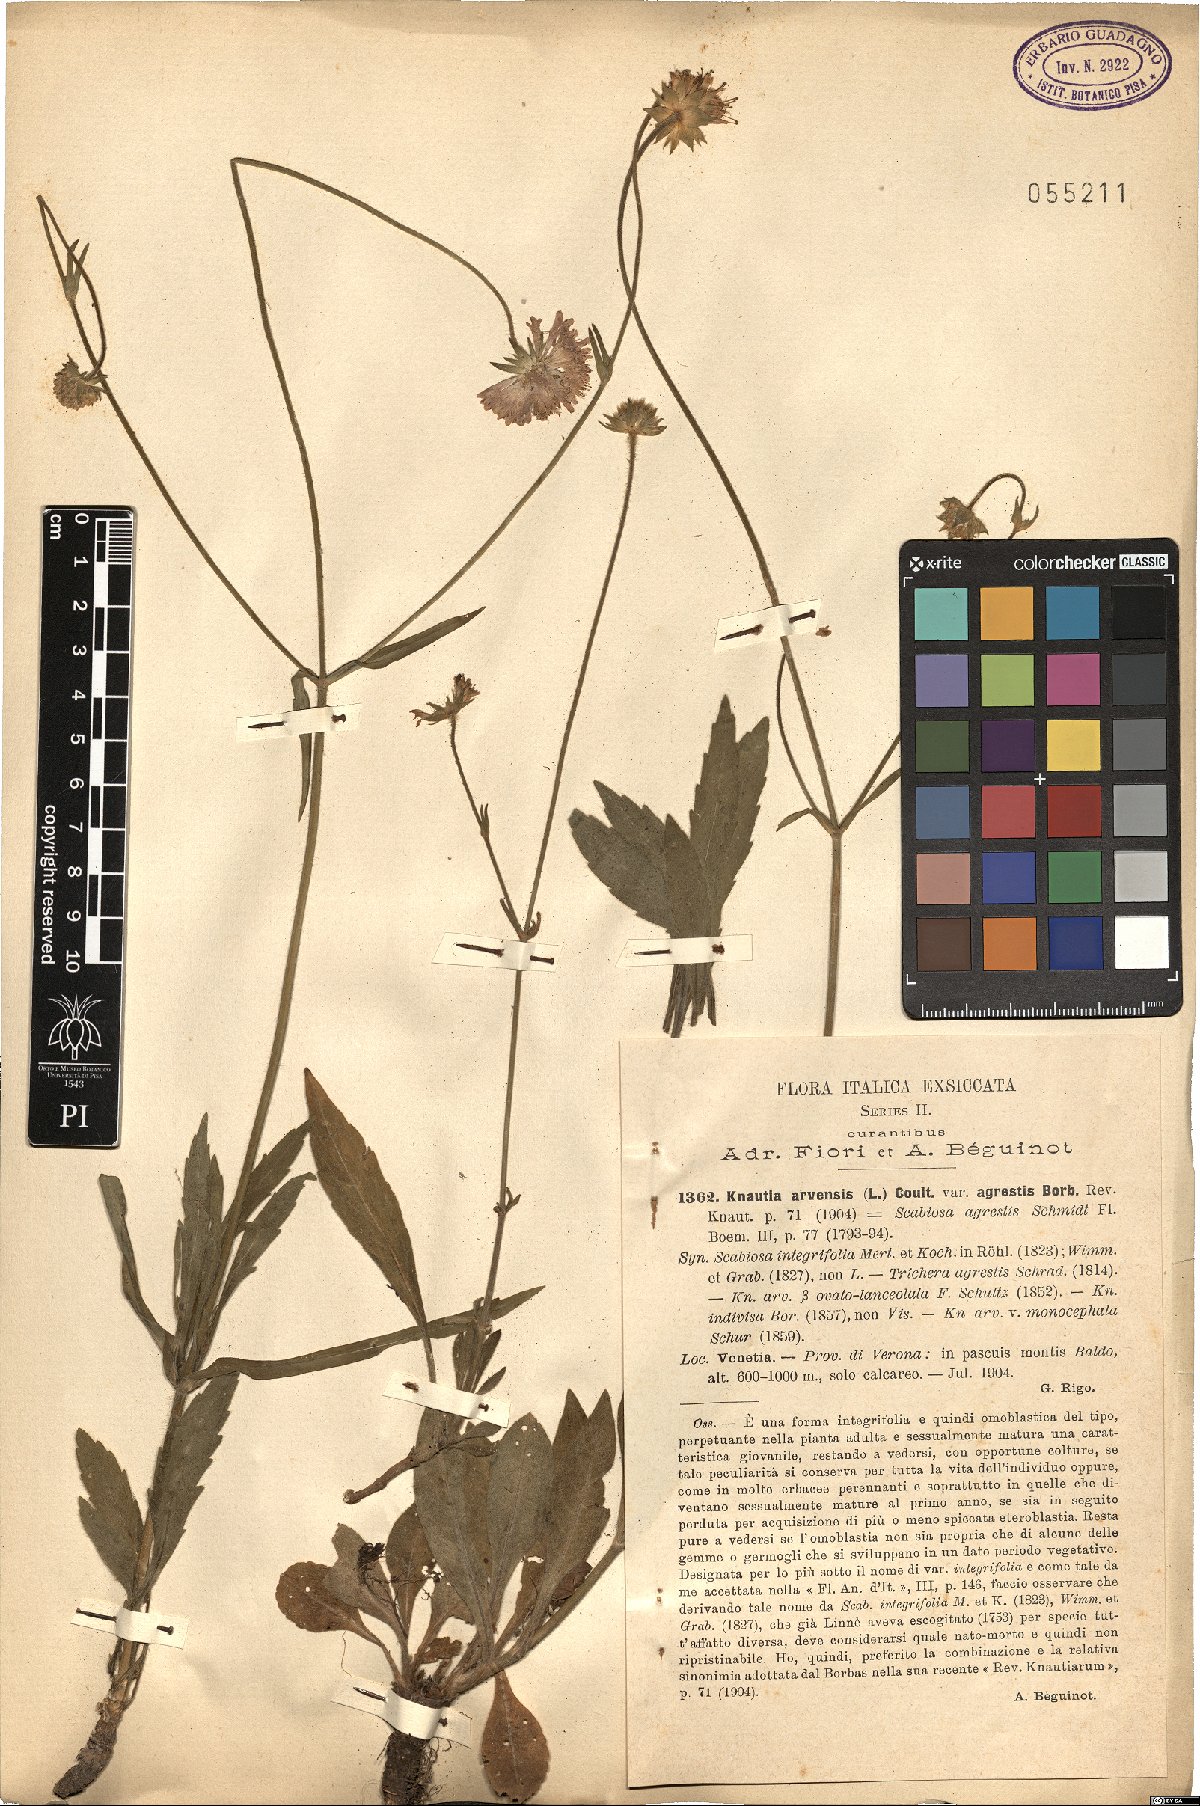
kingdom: Plantae
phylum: Tracheophyta
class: Magnoliopsida
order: Dipsacales
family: Caprifoliaceae
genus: Knautia
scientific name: Knautia arvensis
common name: Field scabiosa
